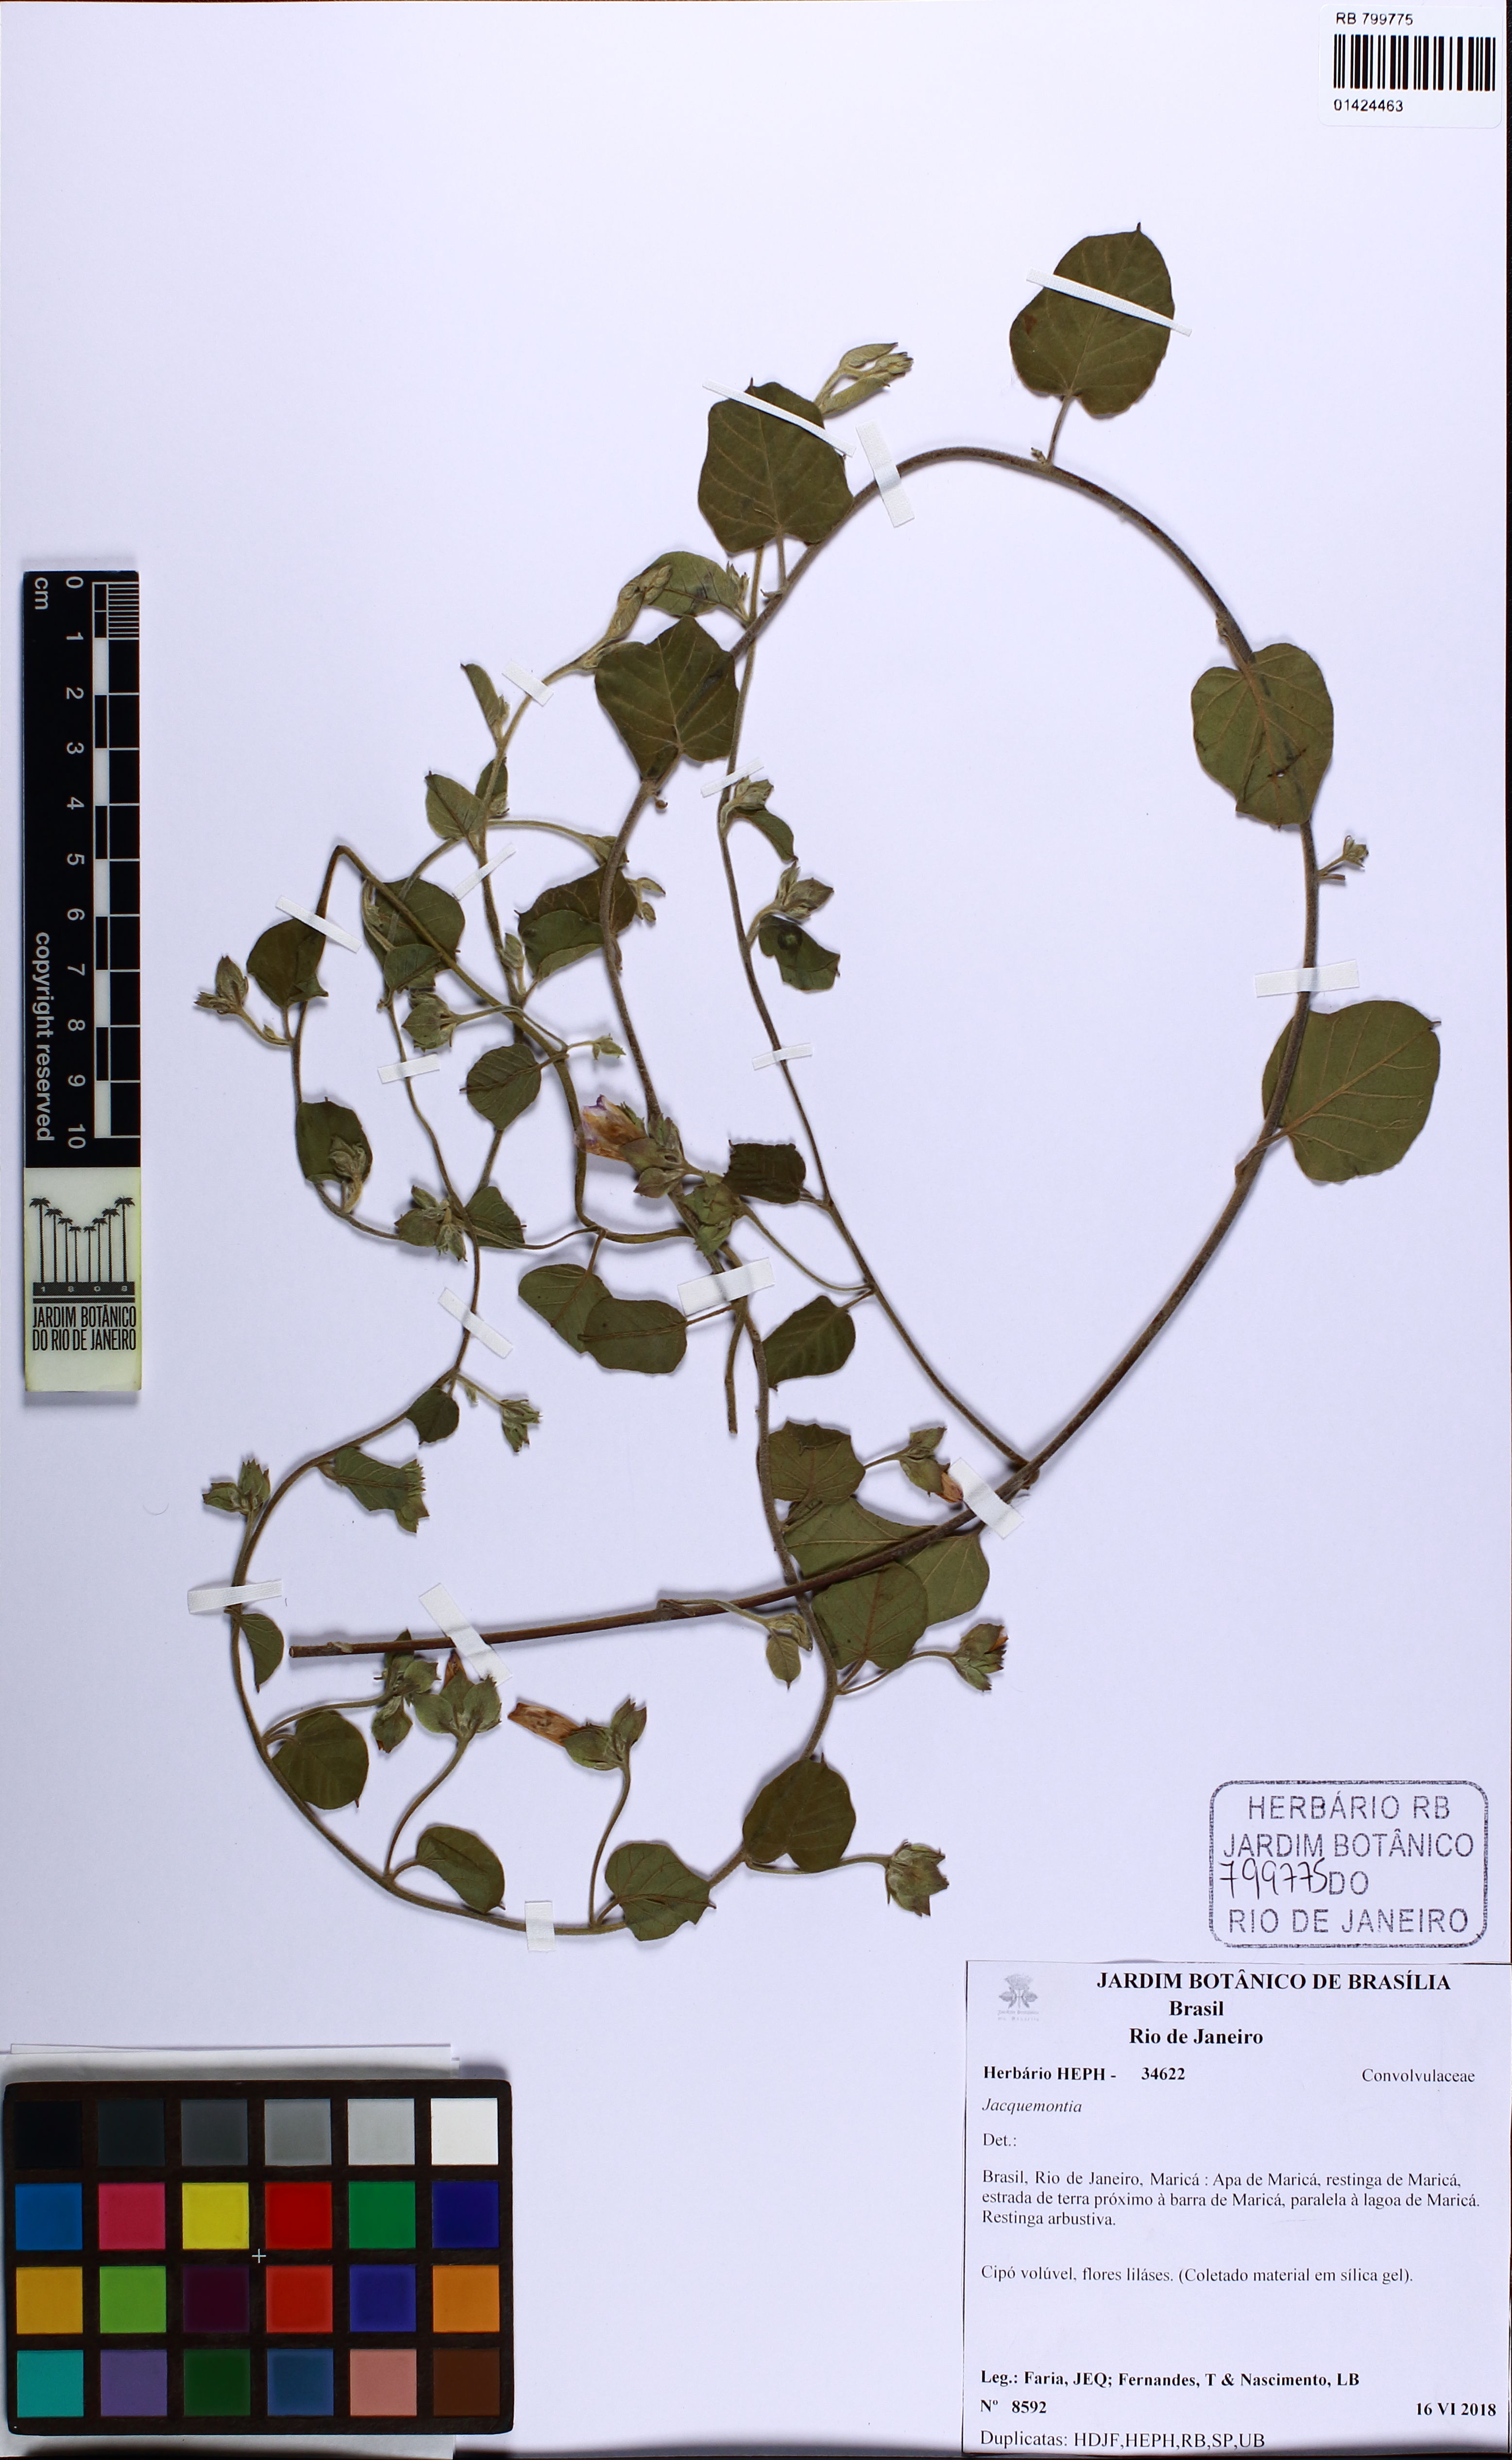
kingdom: Plantae
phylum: Tracheophyta
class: Magnoliopsida
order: Solanales
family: Convolvulaceae
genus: Jacquemontia
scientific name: Jacquemontia
